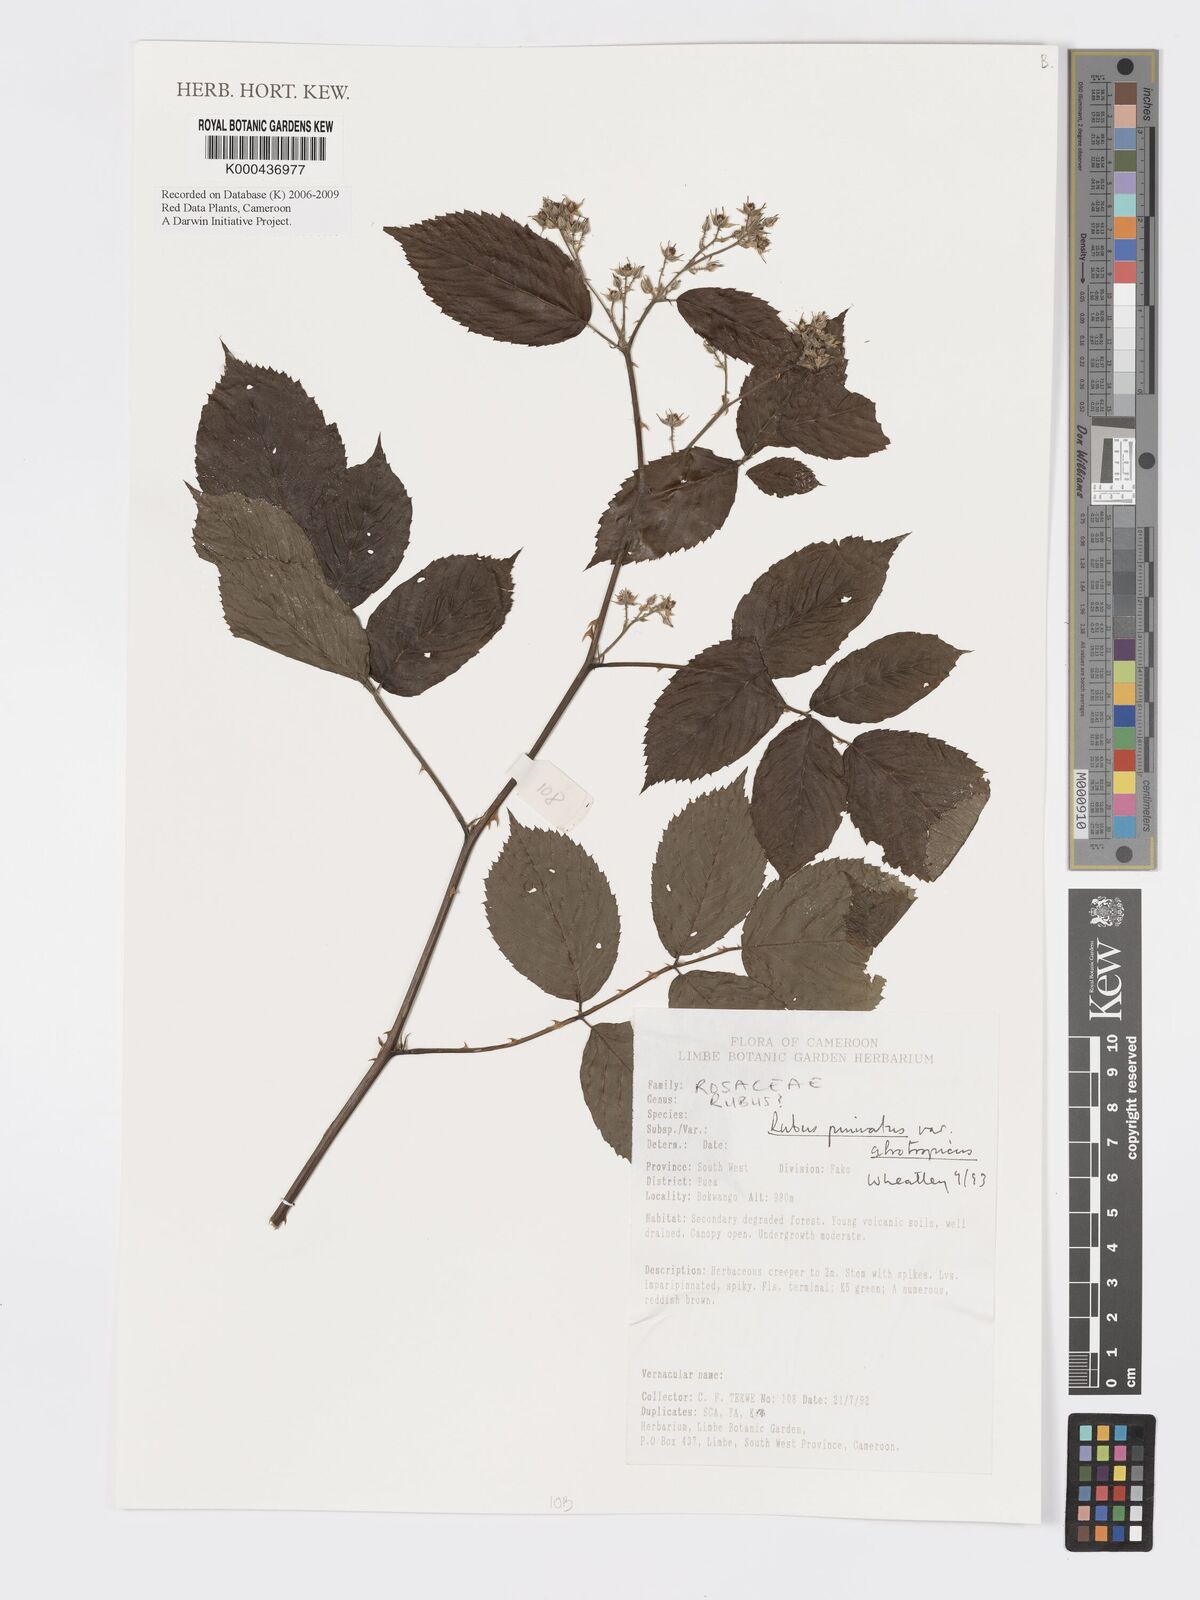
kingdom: Plantae
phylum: Tracheophyta
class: Magnoliopsida
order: Rosales
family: Rosaceae
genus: Rubus
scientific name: Rubus pinnatus
